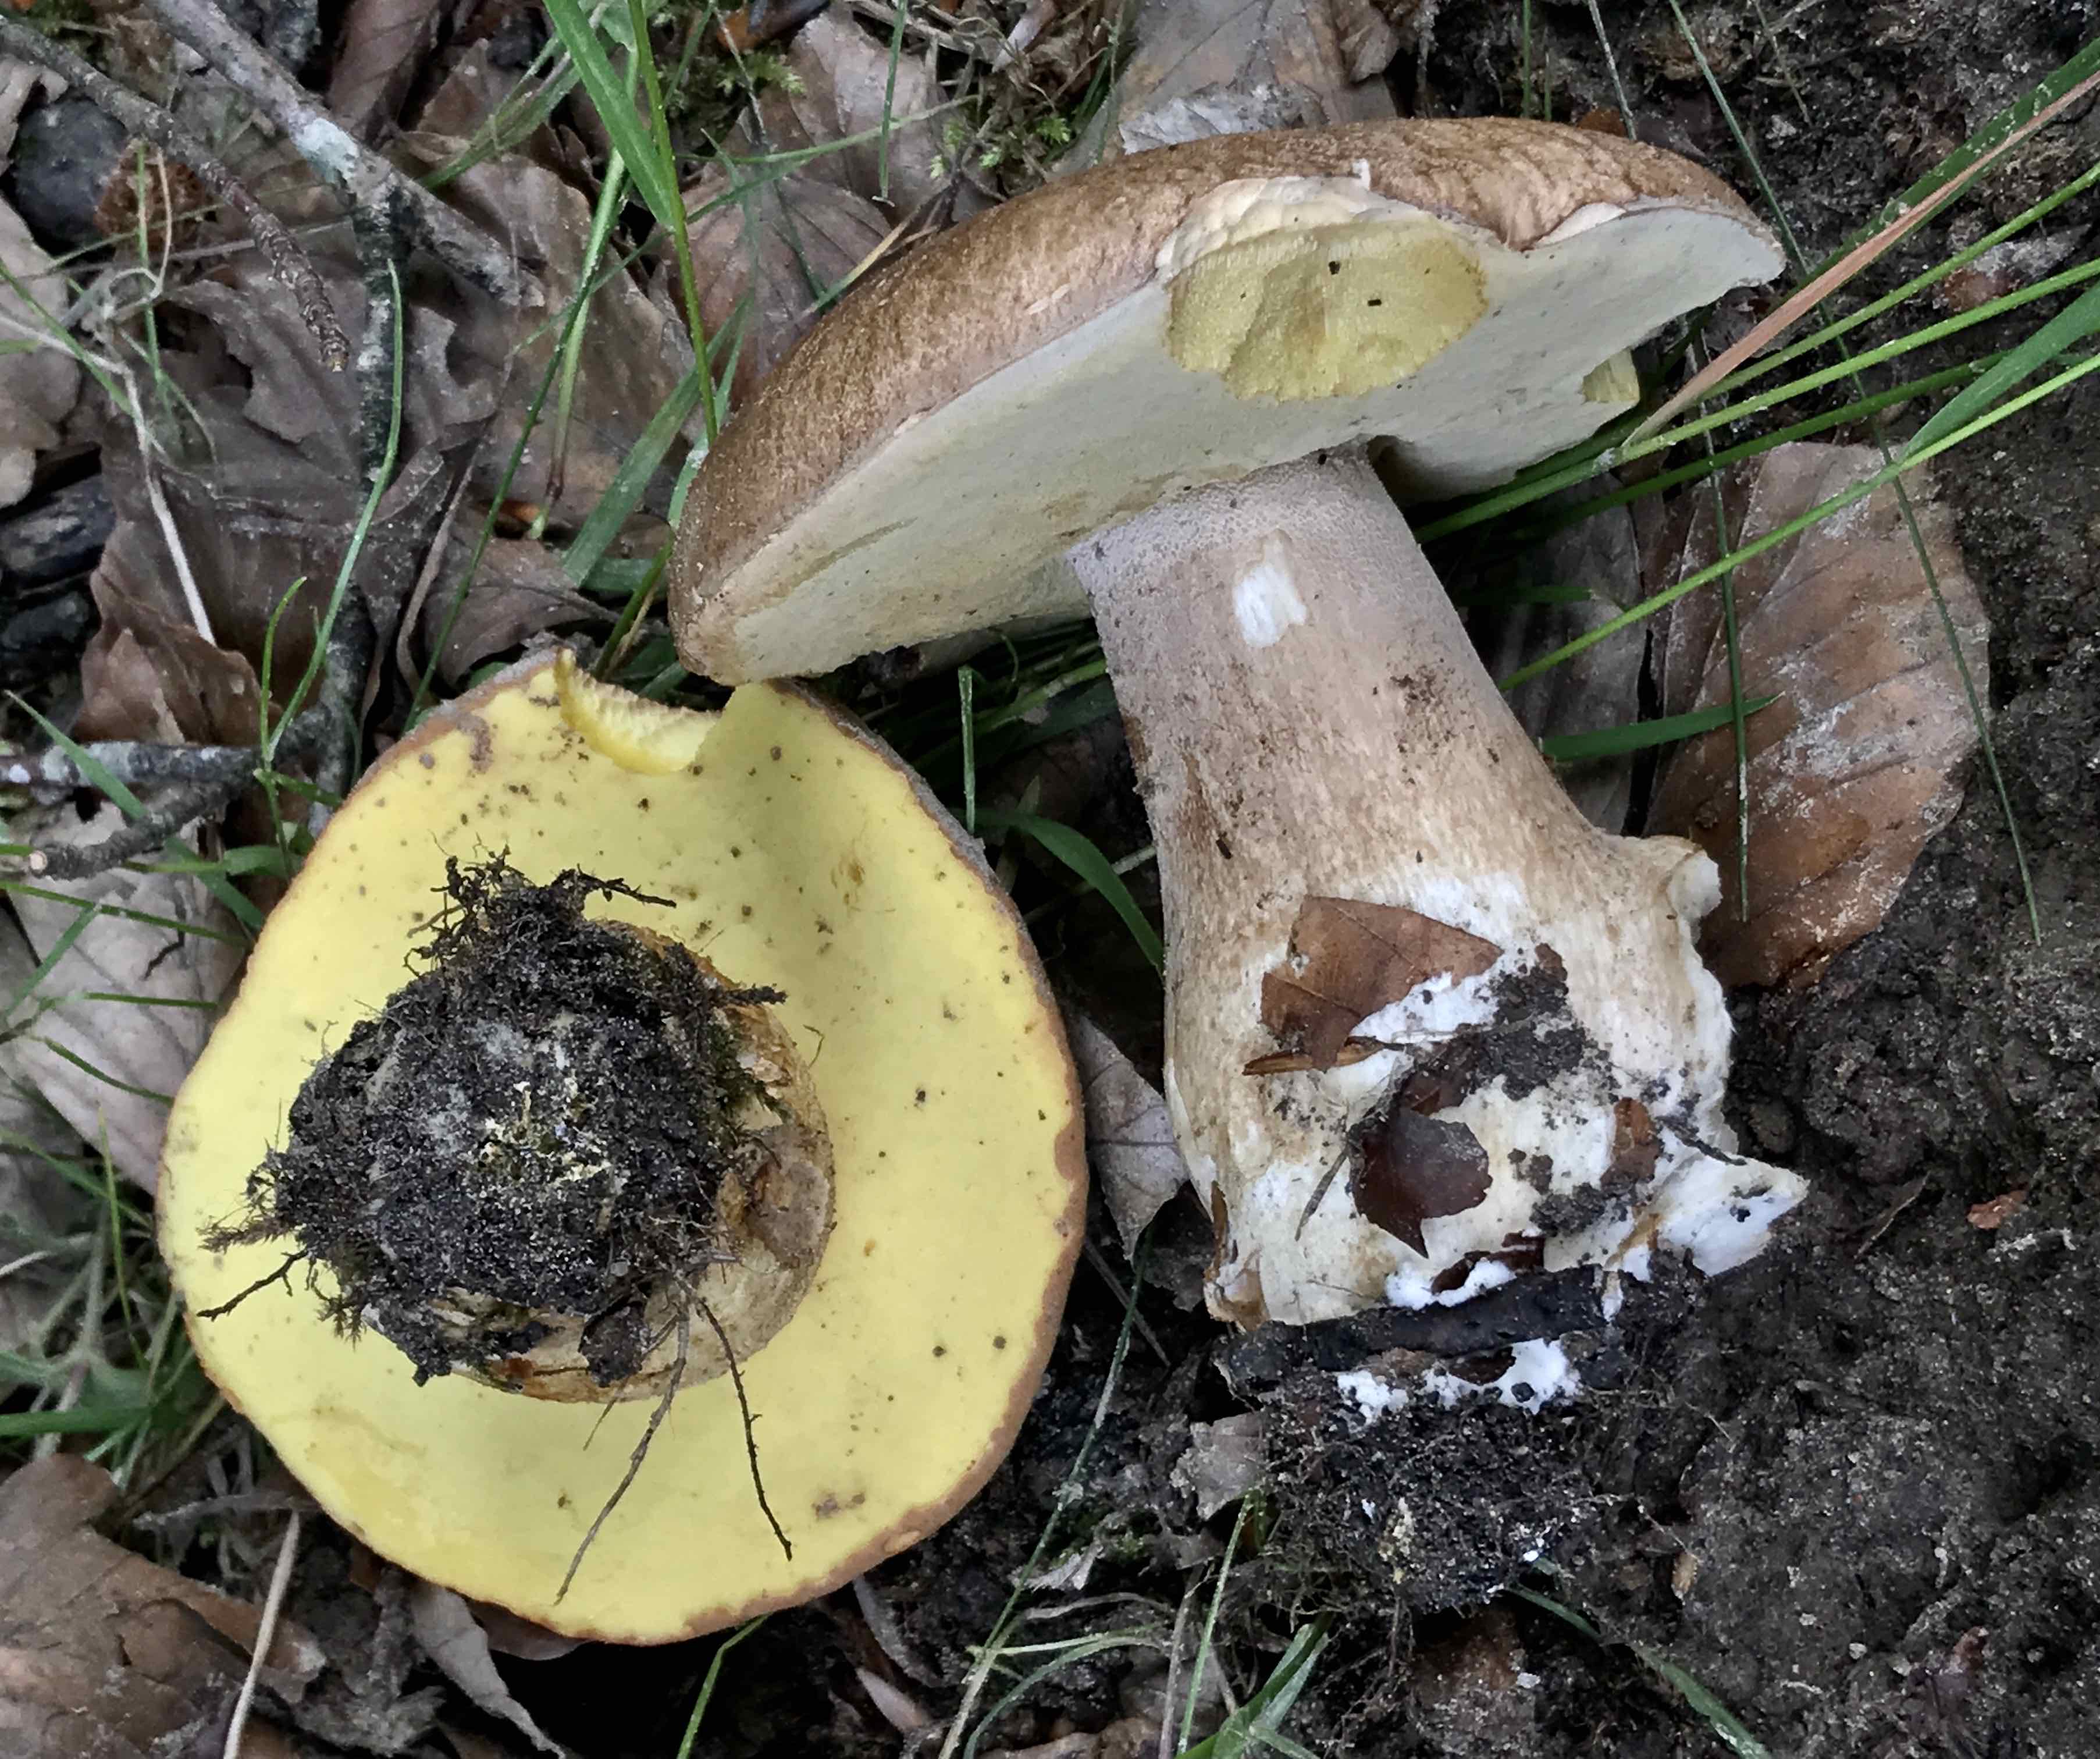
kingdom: Fungi
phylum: Basidiomycota
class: Agaricomycetes
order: Boletales
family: Boletaceae
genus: Boletus
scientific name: Boletus reticulatus
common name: sommer-rørhat
